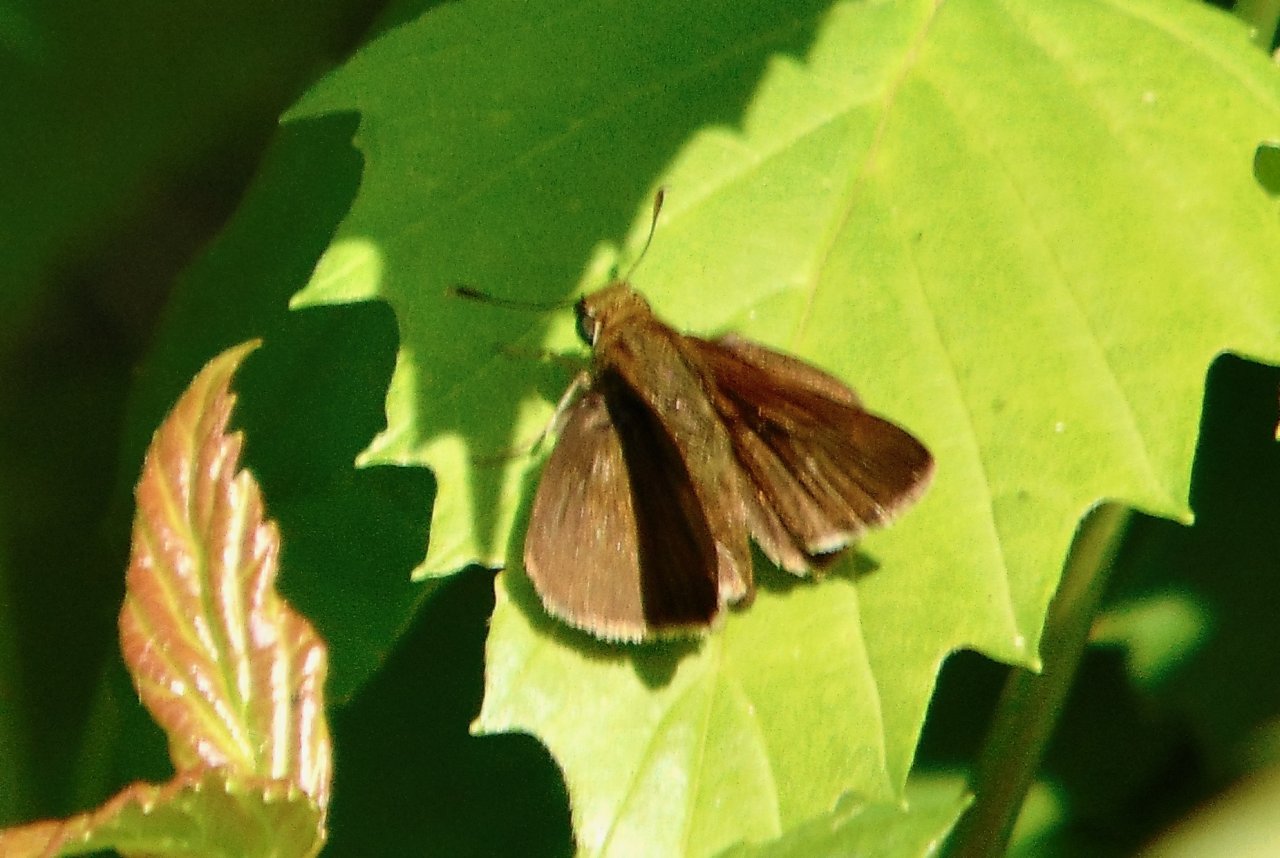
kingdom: Animalia
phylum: Arthropoda
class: Insecta
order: Lepidoptera
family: Hesperiidae
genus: Euphyes
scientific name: Euphyes vestris
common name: Dun Skipper
